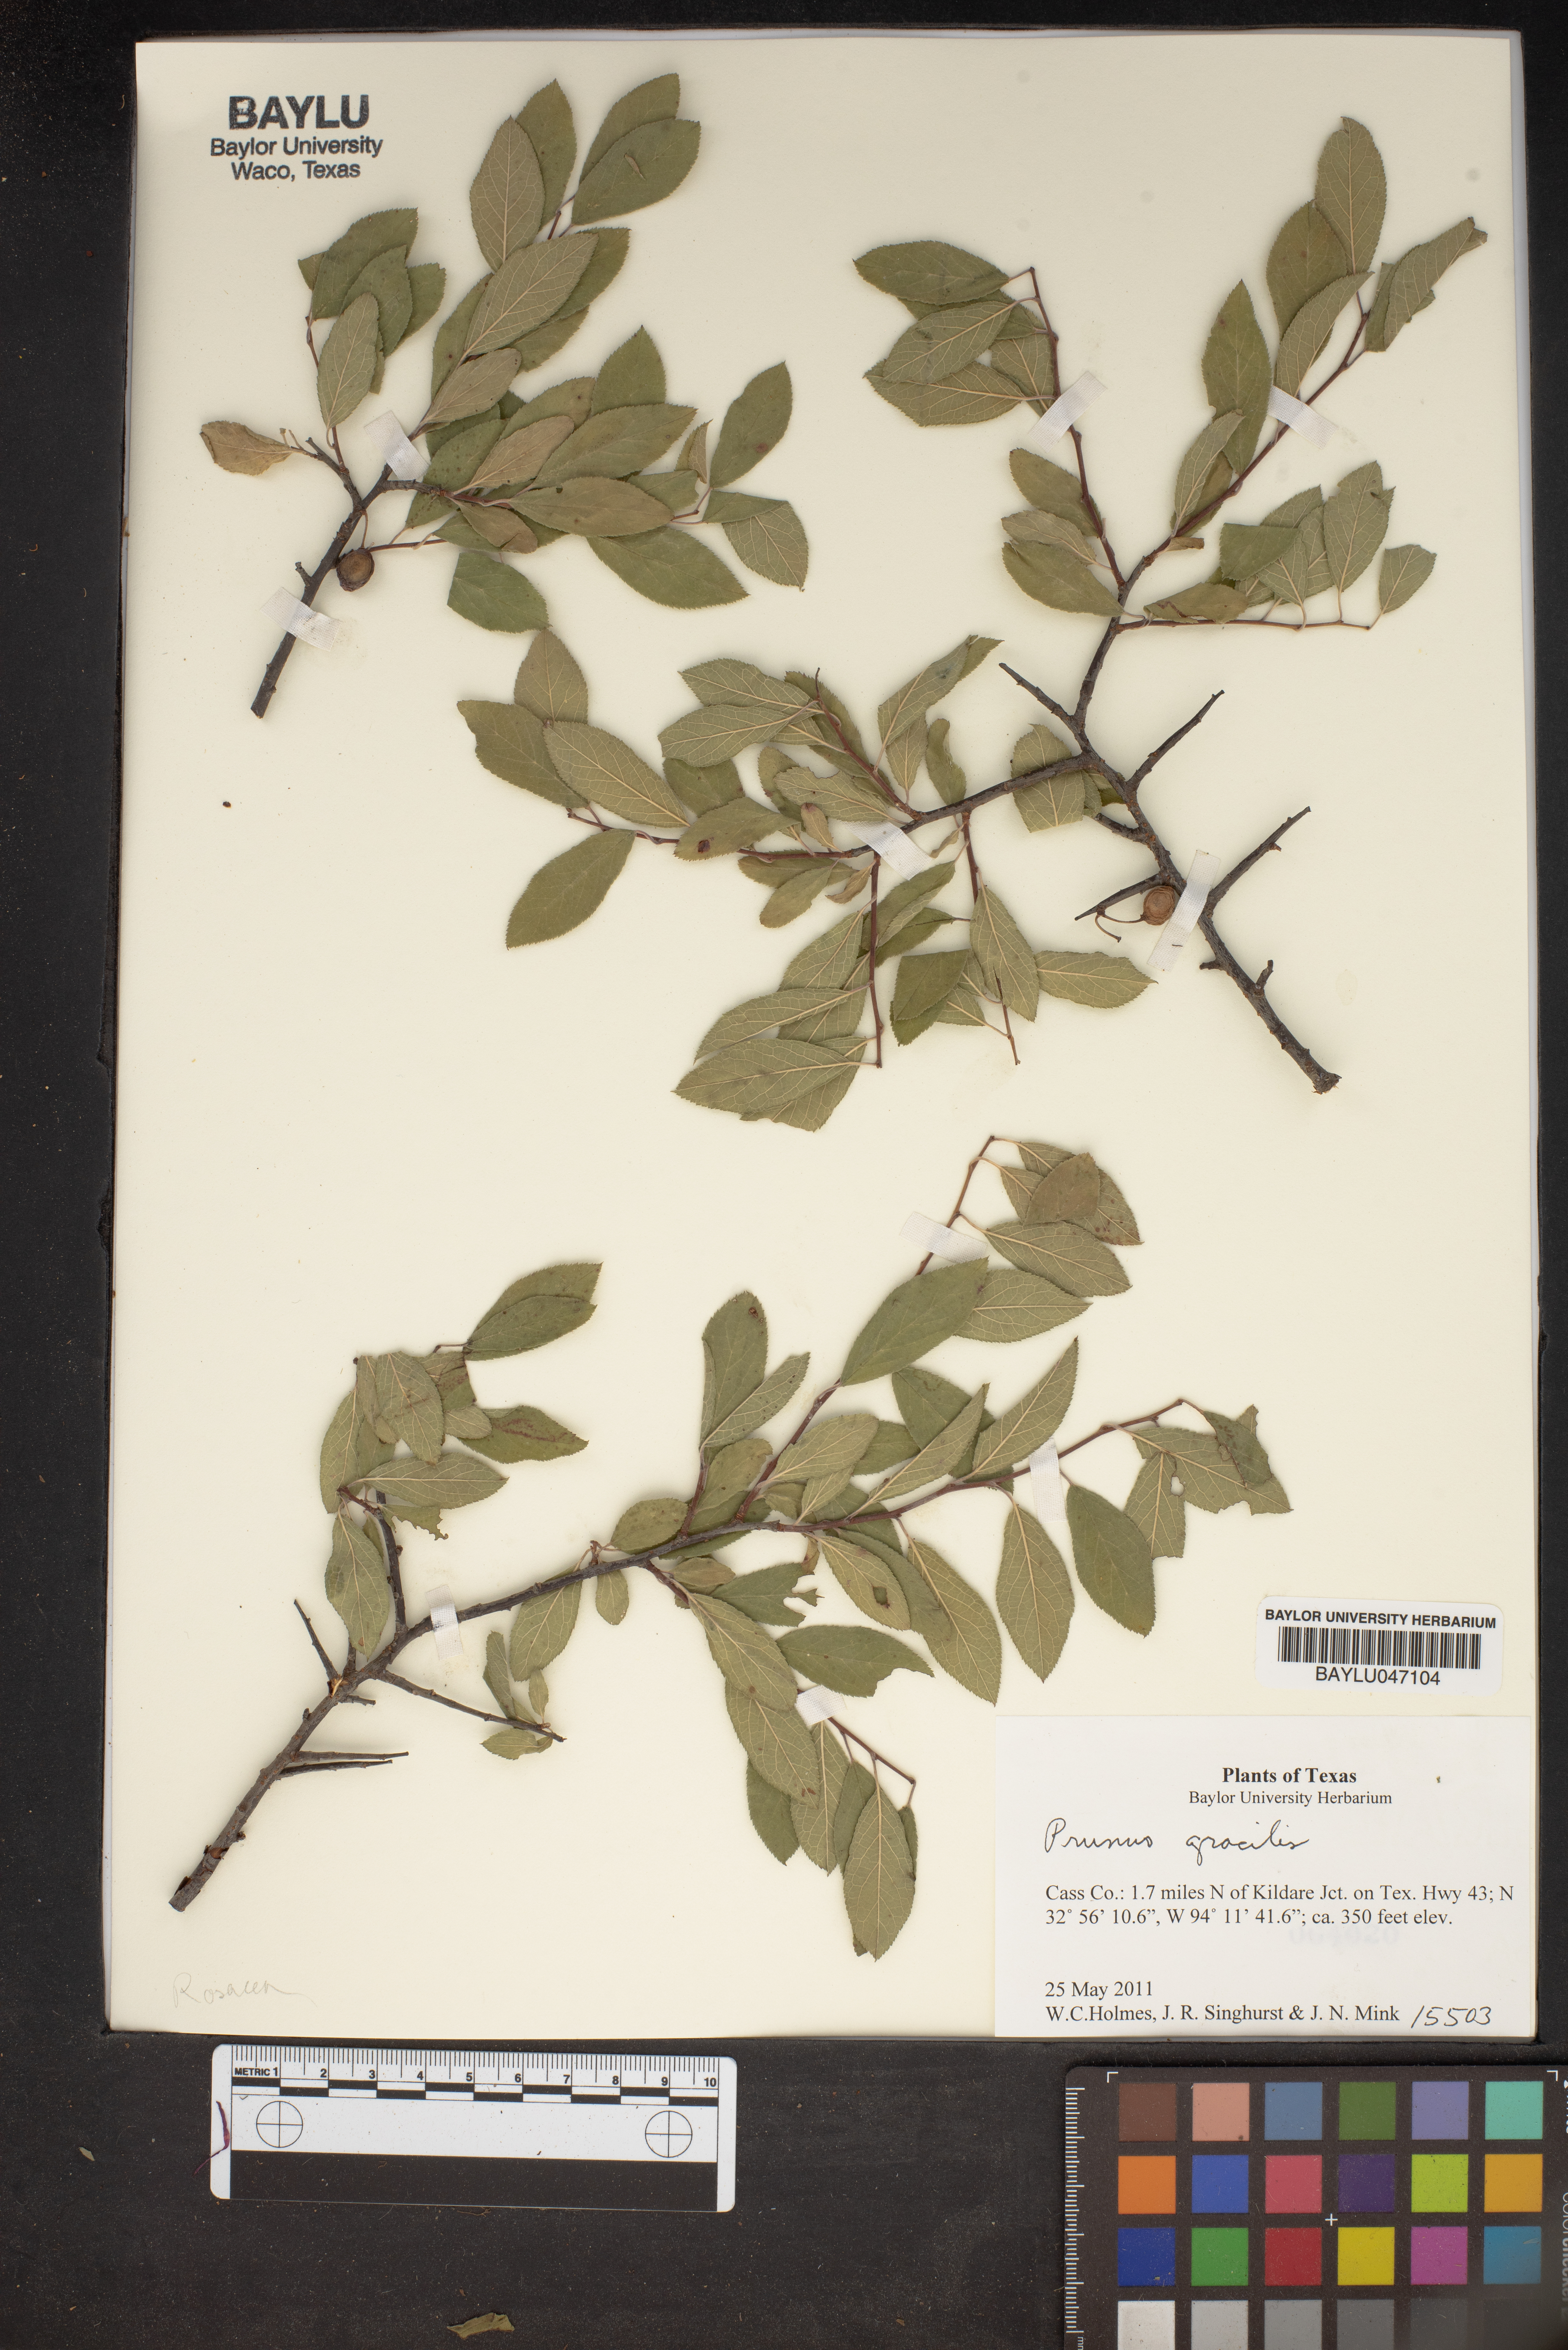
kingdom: Plantae
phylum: Tracheophyta
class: Magnoliopsida
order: Rosales
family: Rosaceae
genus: Prunus
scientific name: Prunus gracilis
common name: Oklahoma plum
